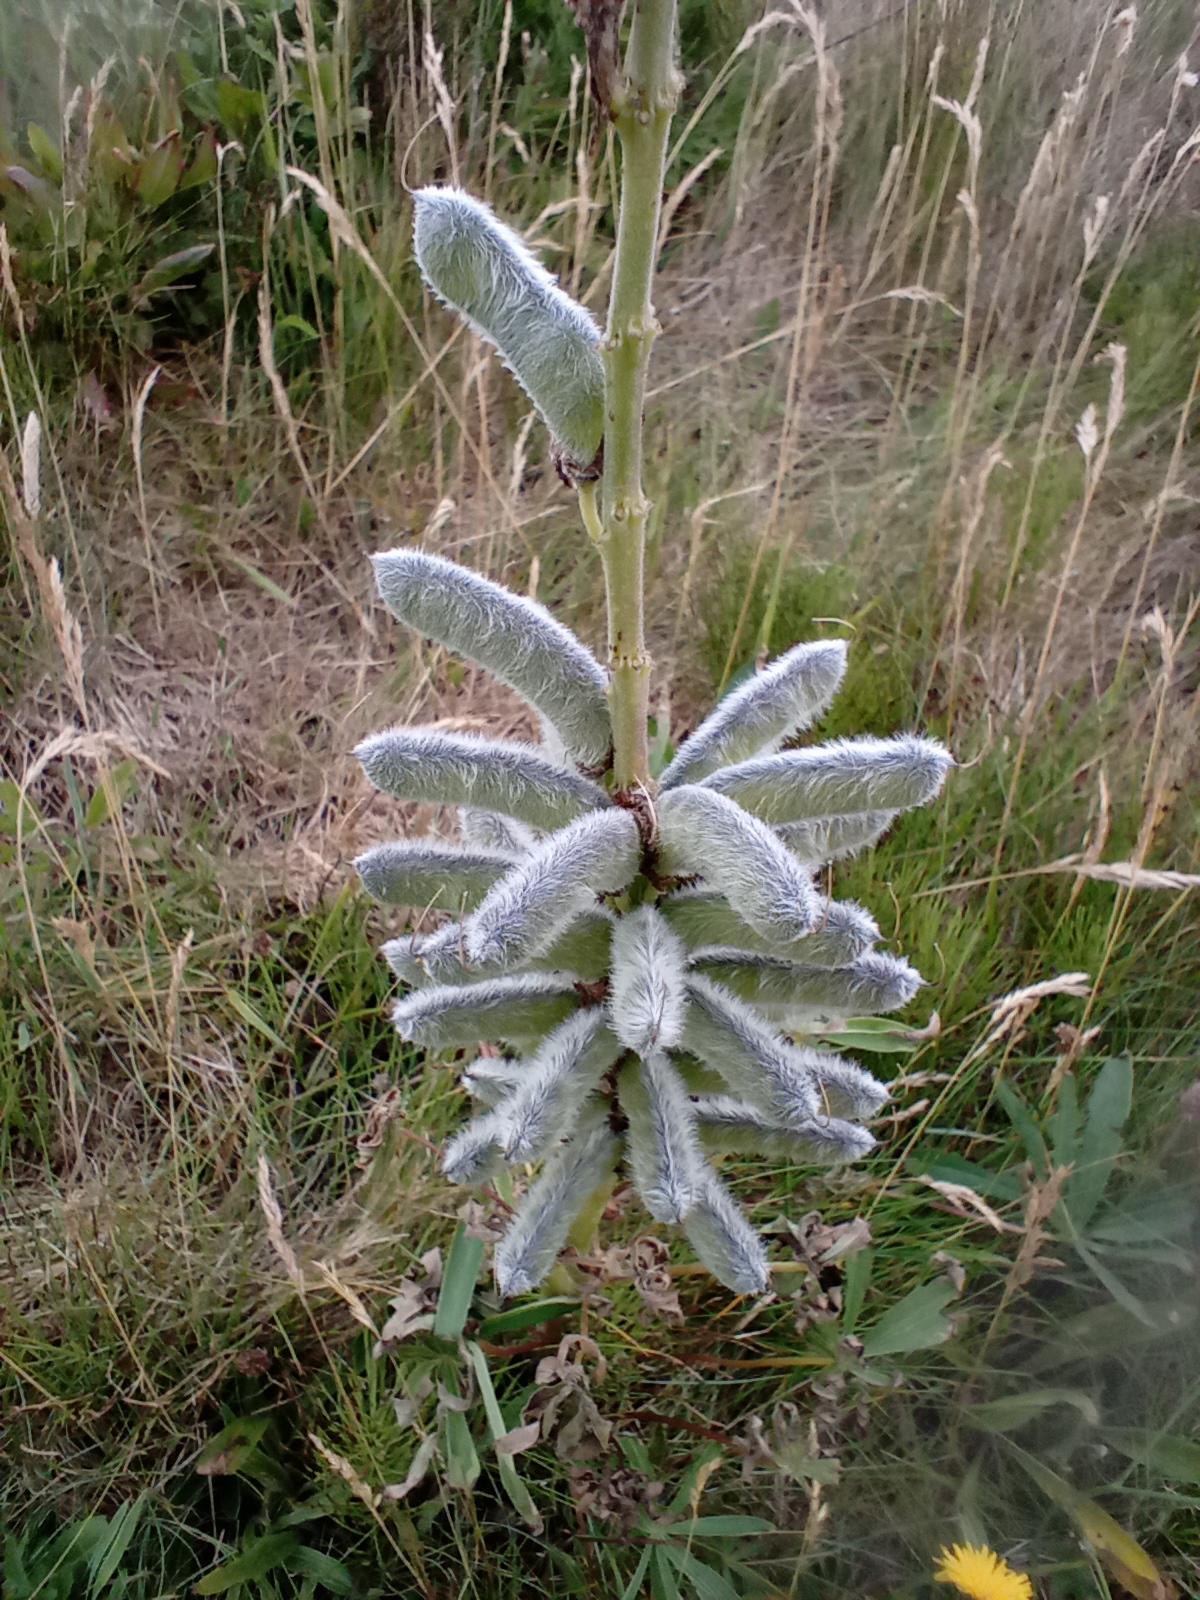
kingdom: Plantae
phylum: Tracheophyta
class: Magnoliopsida
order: Fabales
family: Fabaceae
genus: Lupinus
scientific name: Lupinus polyphyllus
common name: Mangebladet lupin
